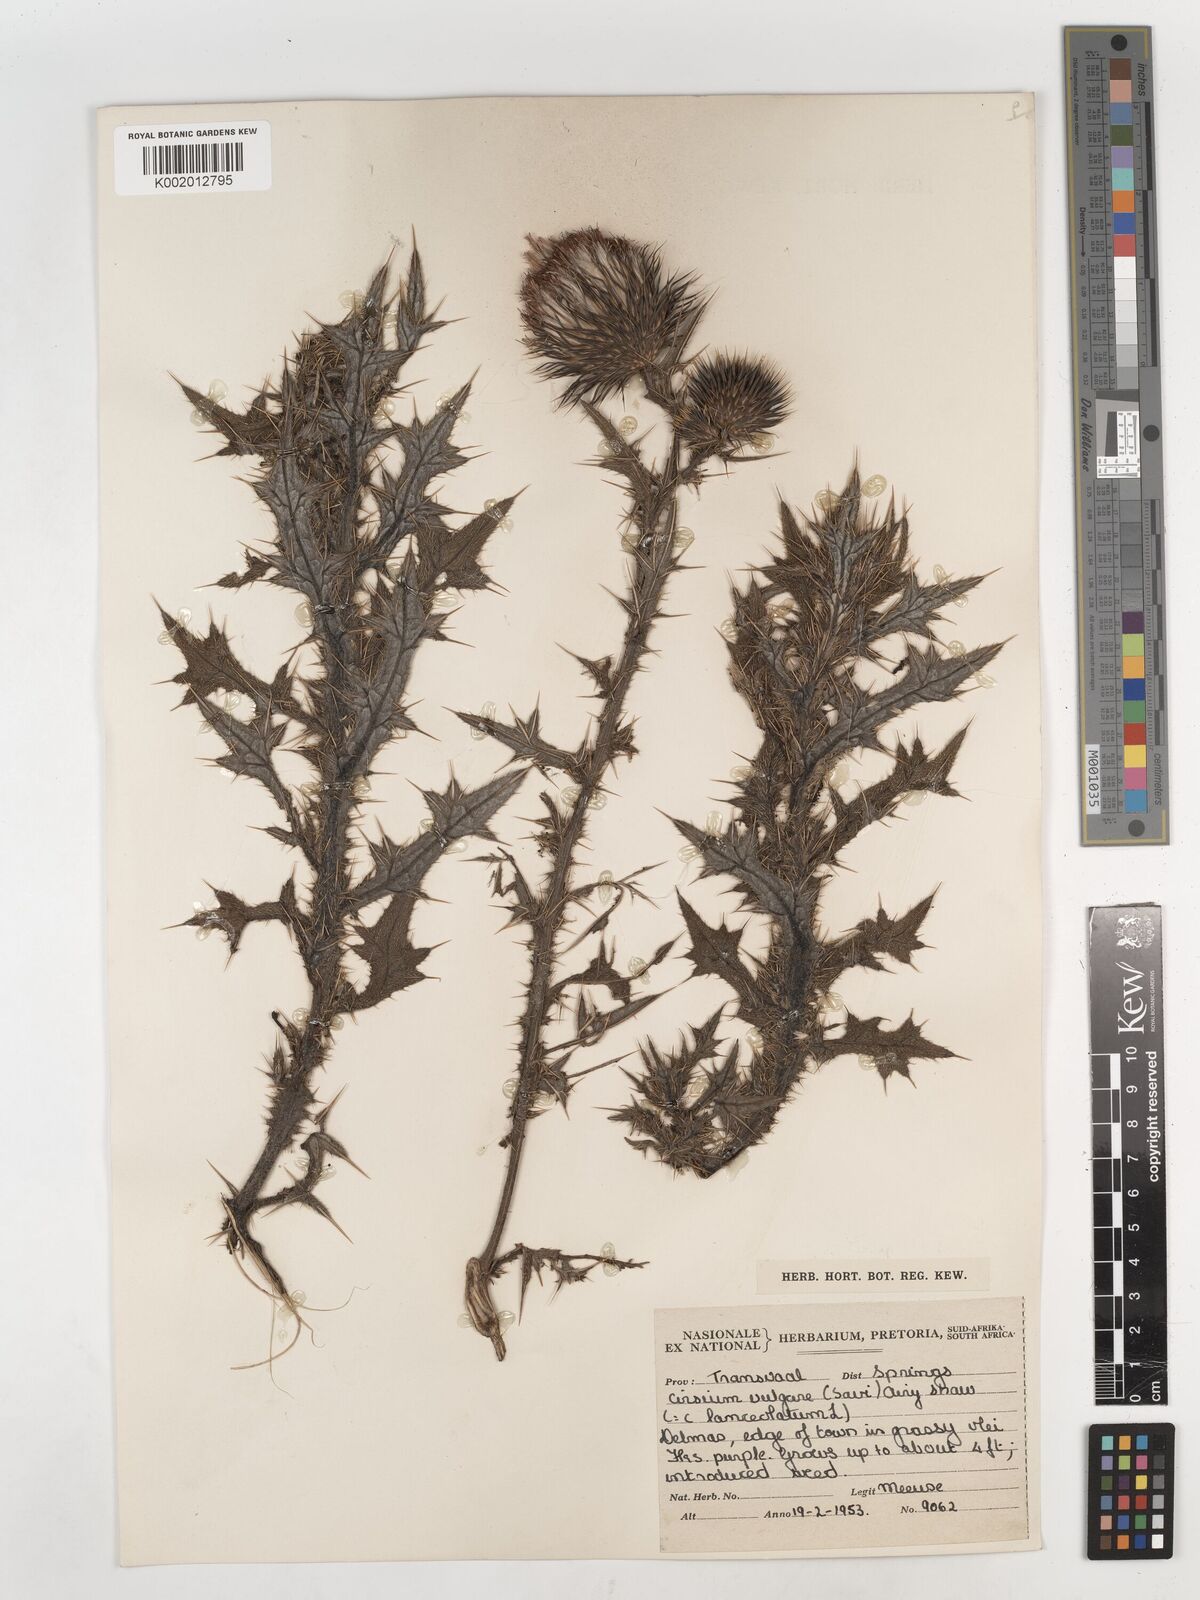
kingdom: Plantae
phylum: Tracheophyta
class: Magnoliopsida
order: Asterales
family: Asteraceae
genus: Cirsium
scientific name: Cirsium vulgare
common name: Bull thistle
